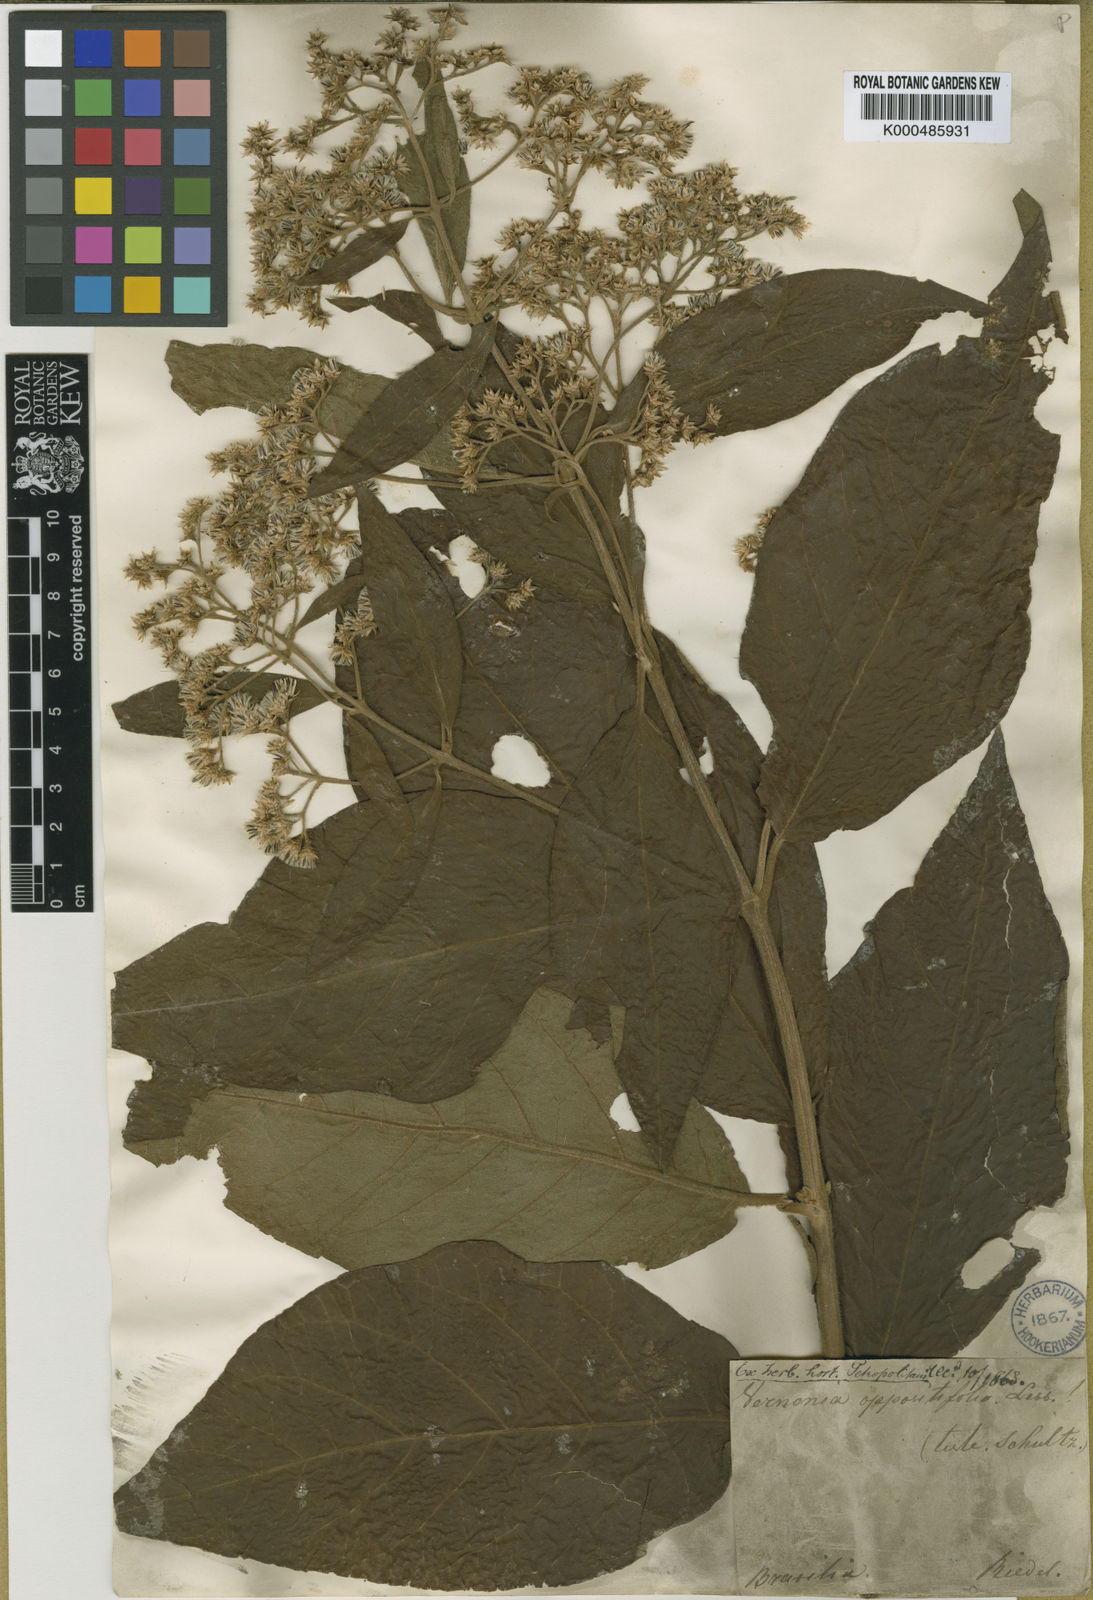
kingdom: Plantae
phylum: Tracheophyta
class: Magnoliopsida
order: Asterales
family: Asteraceae
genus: Critoniopsis
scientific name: Critoniopsis stellata
